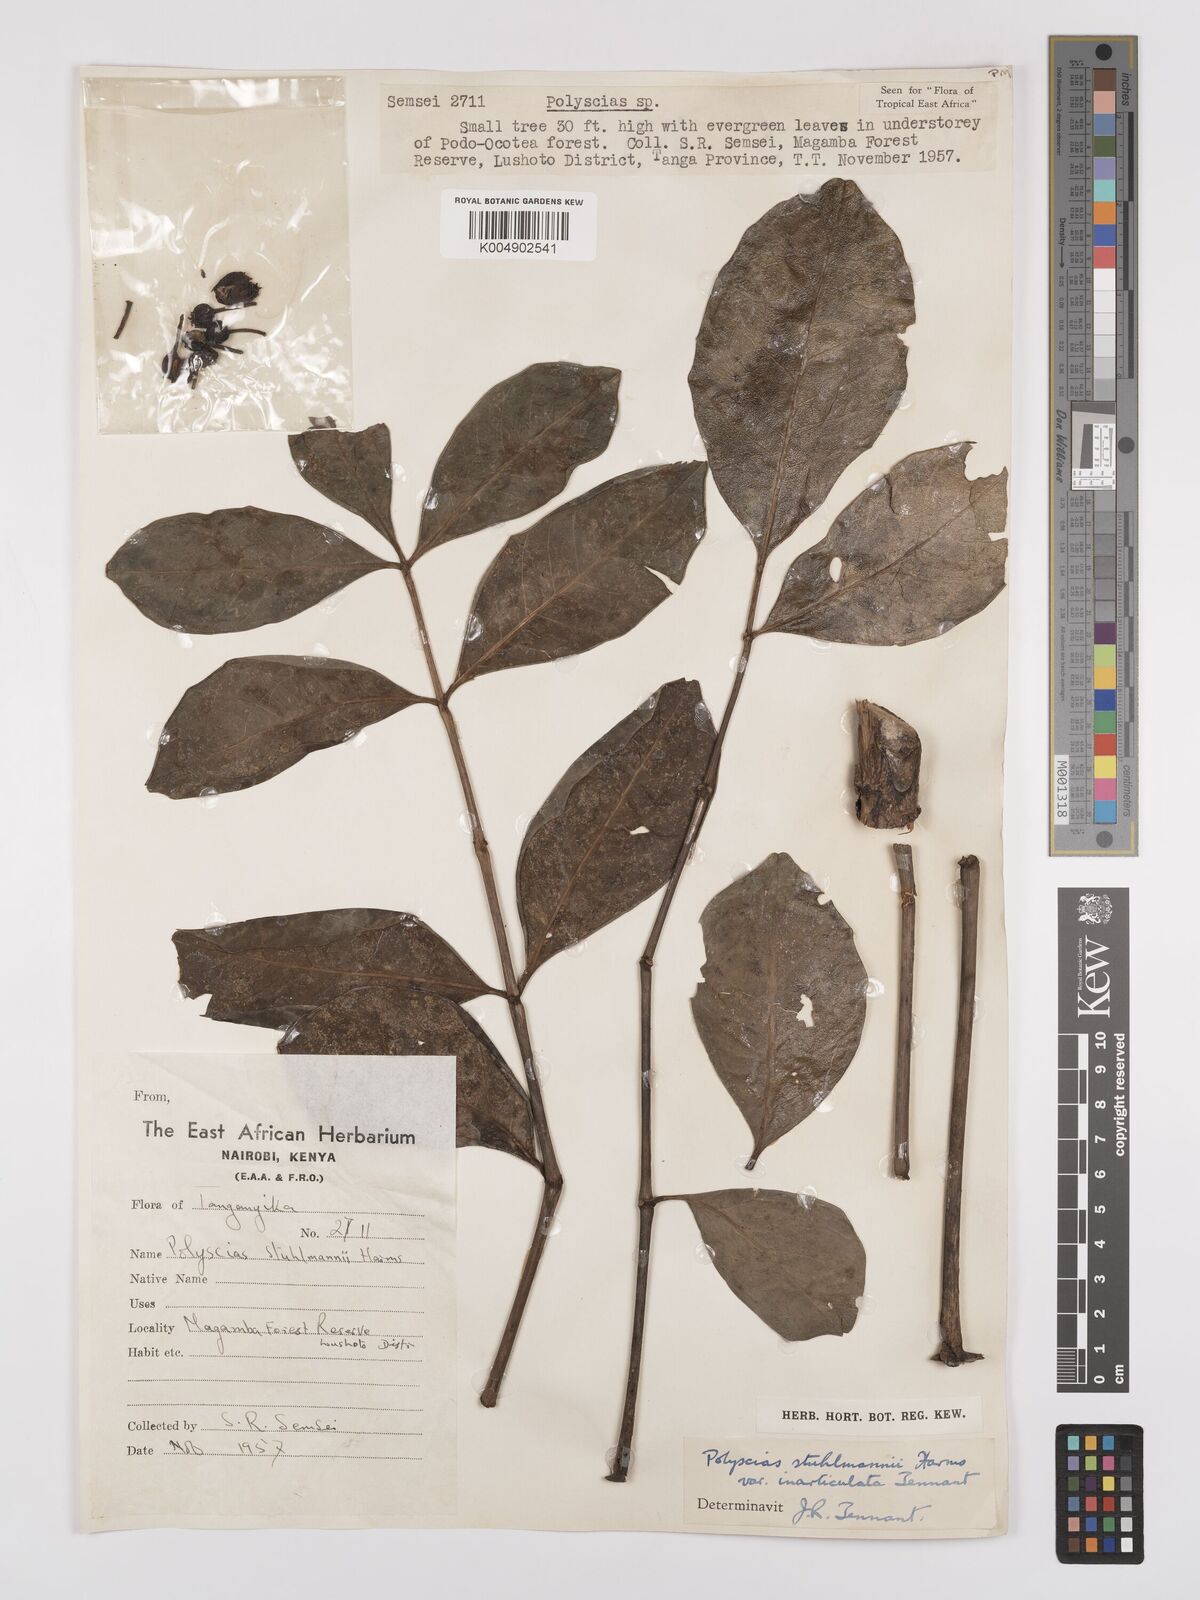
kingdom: Plantae
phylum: Tracheophyta
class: Magnoliopsida
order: Apiales
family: Araliaceae
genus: Polyscias
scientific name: Polyscias stuhlmannii
